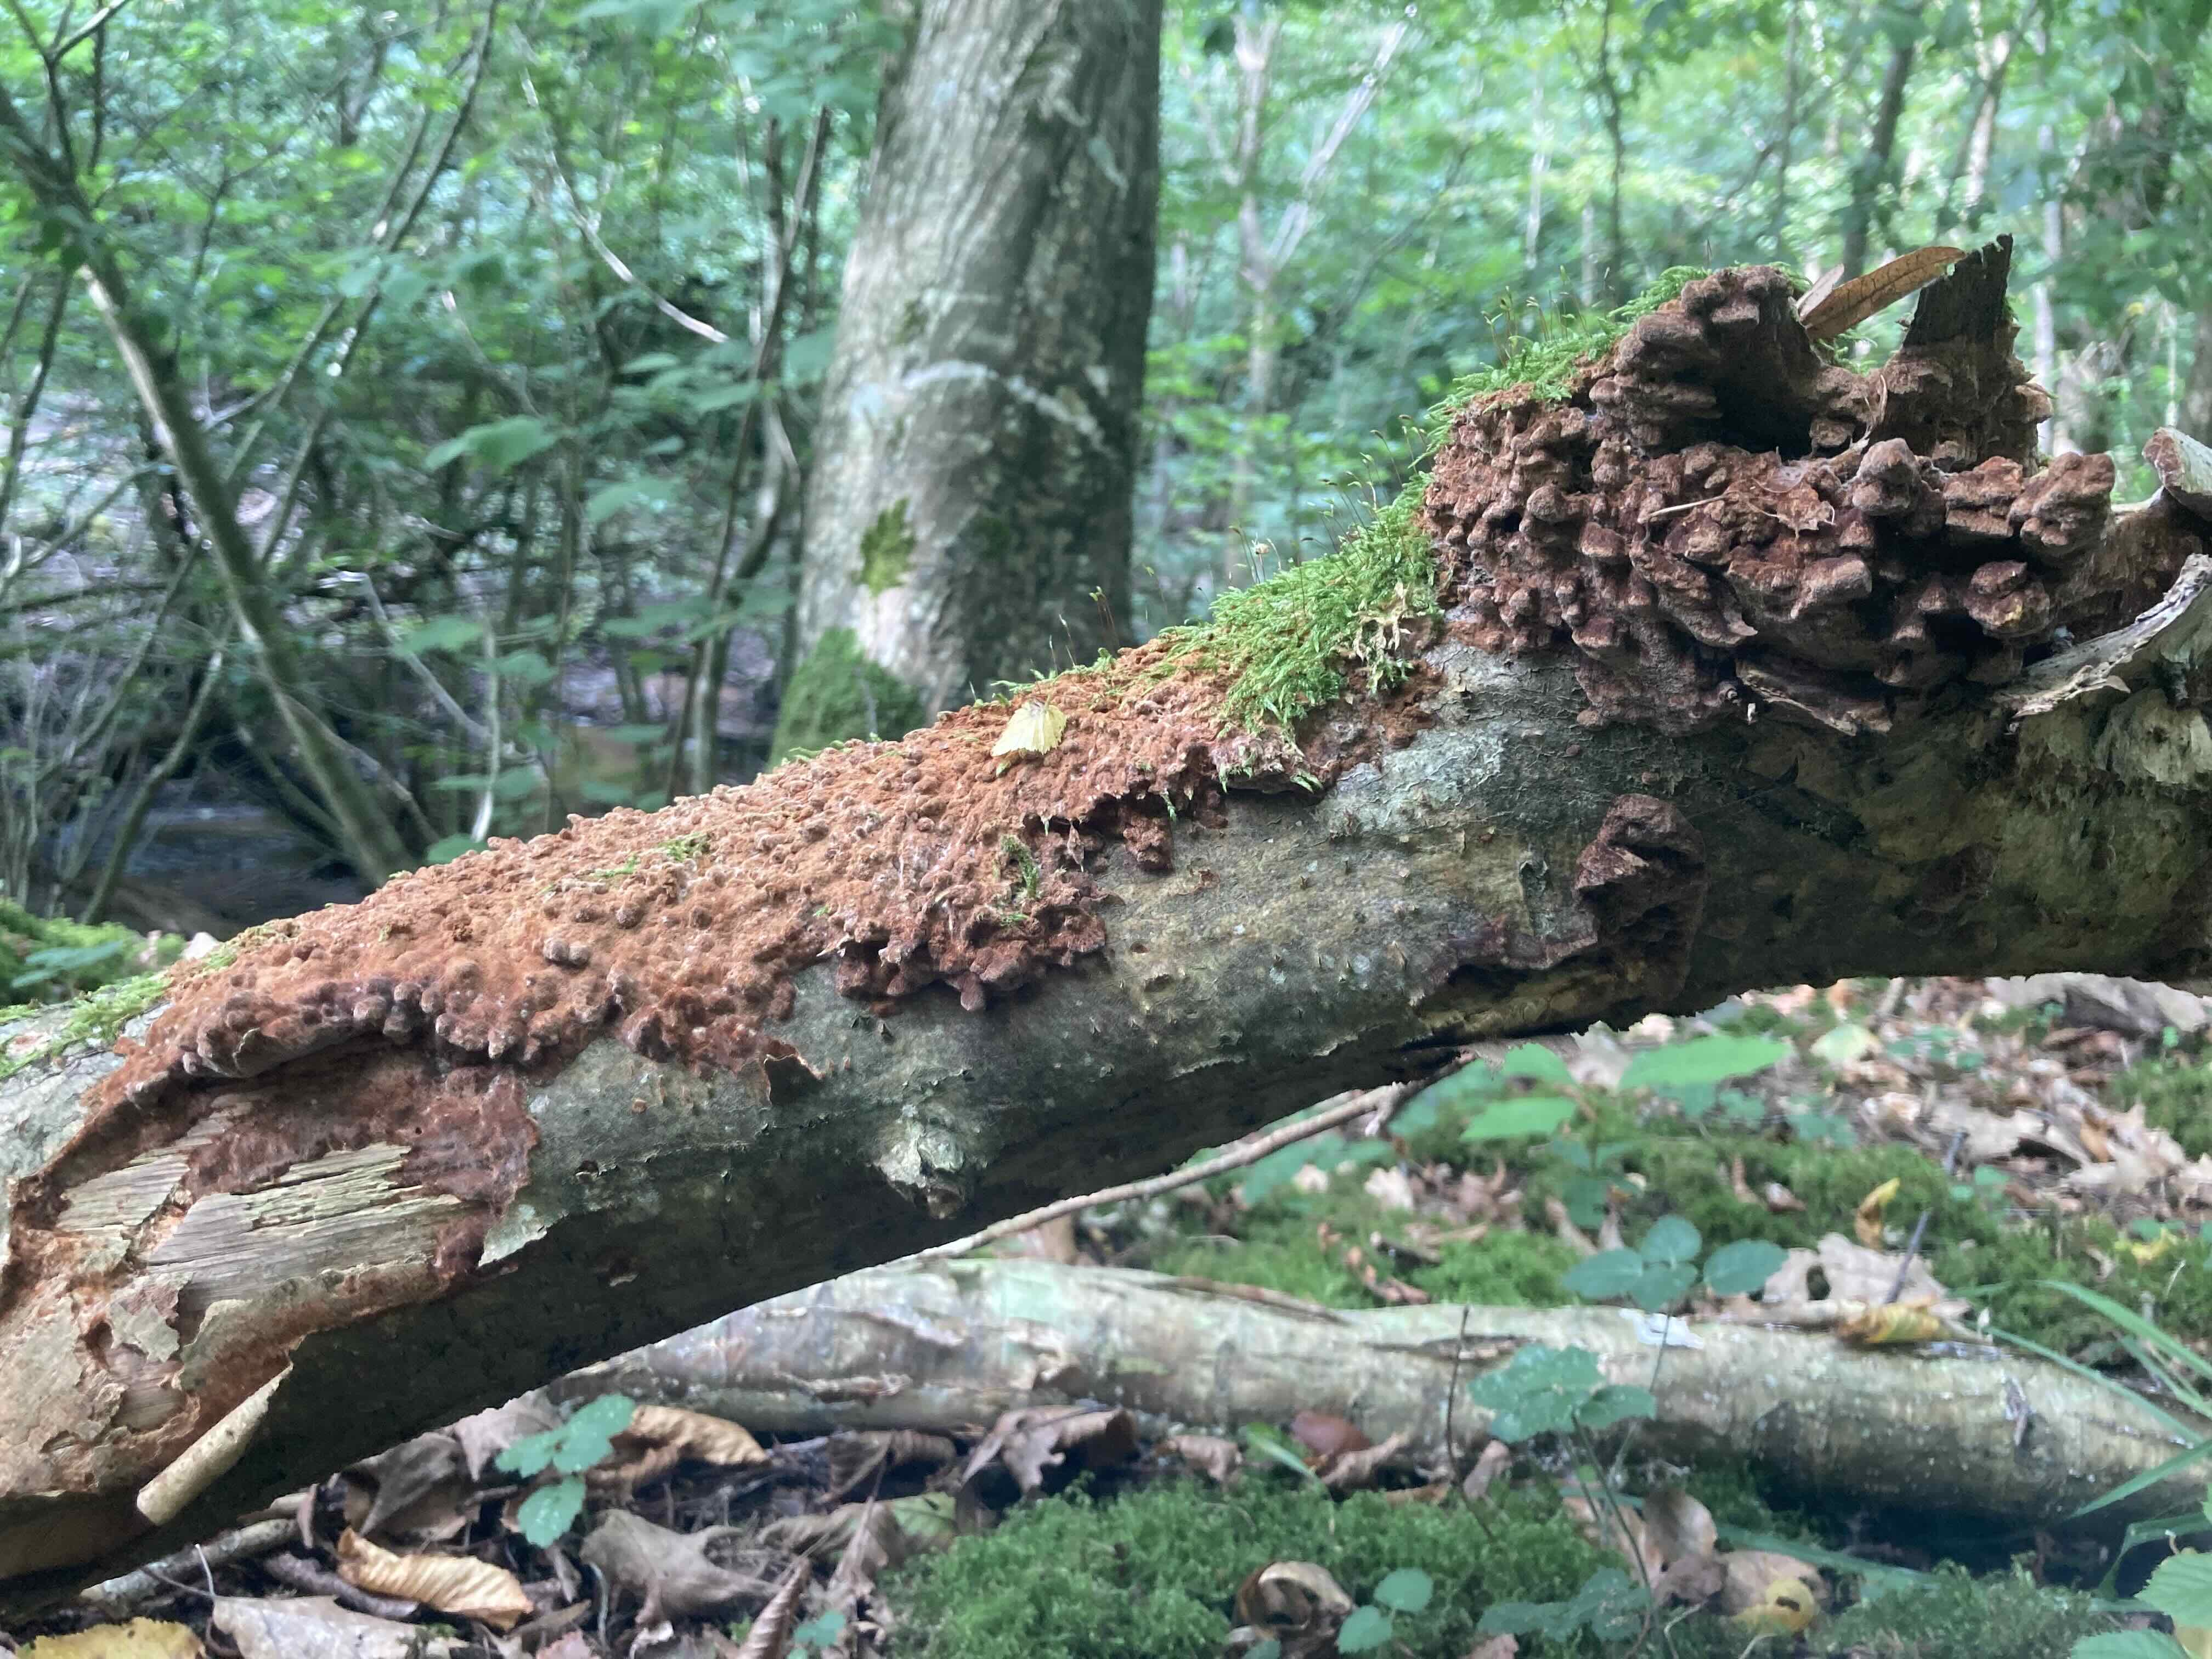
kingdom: Fungi
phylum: Basidiomycota
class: Agaricomycetes
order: Hymenochaetales
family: Hymenochaetaceae
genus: Fuscoporia
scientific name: Fuscoporia ferrea
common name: skorpe-ildporesvamp
